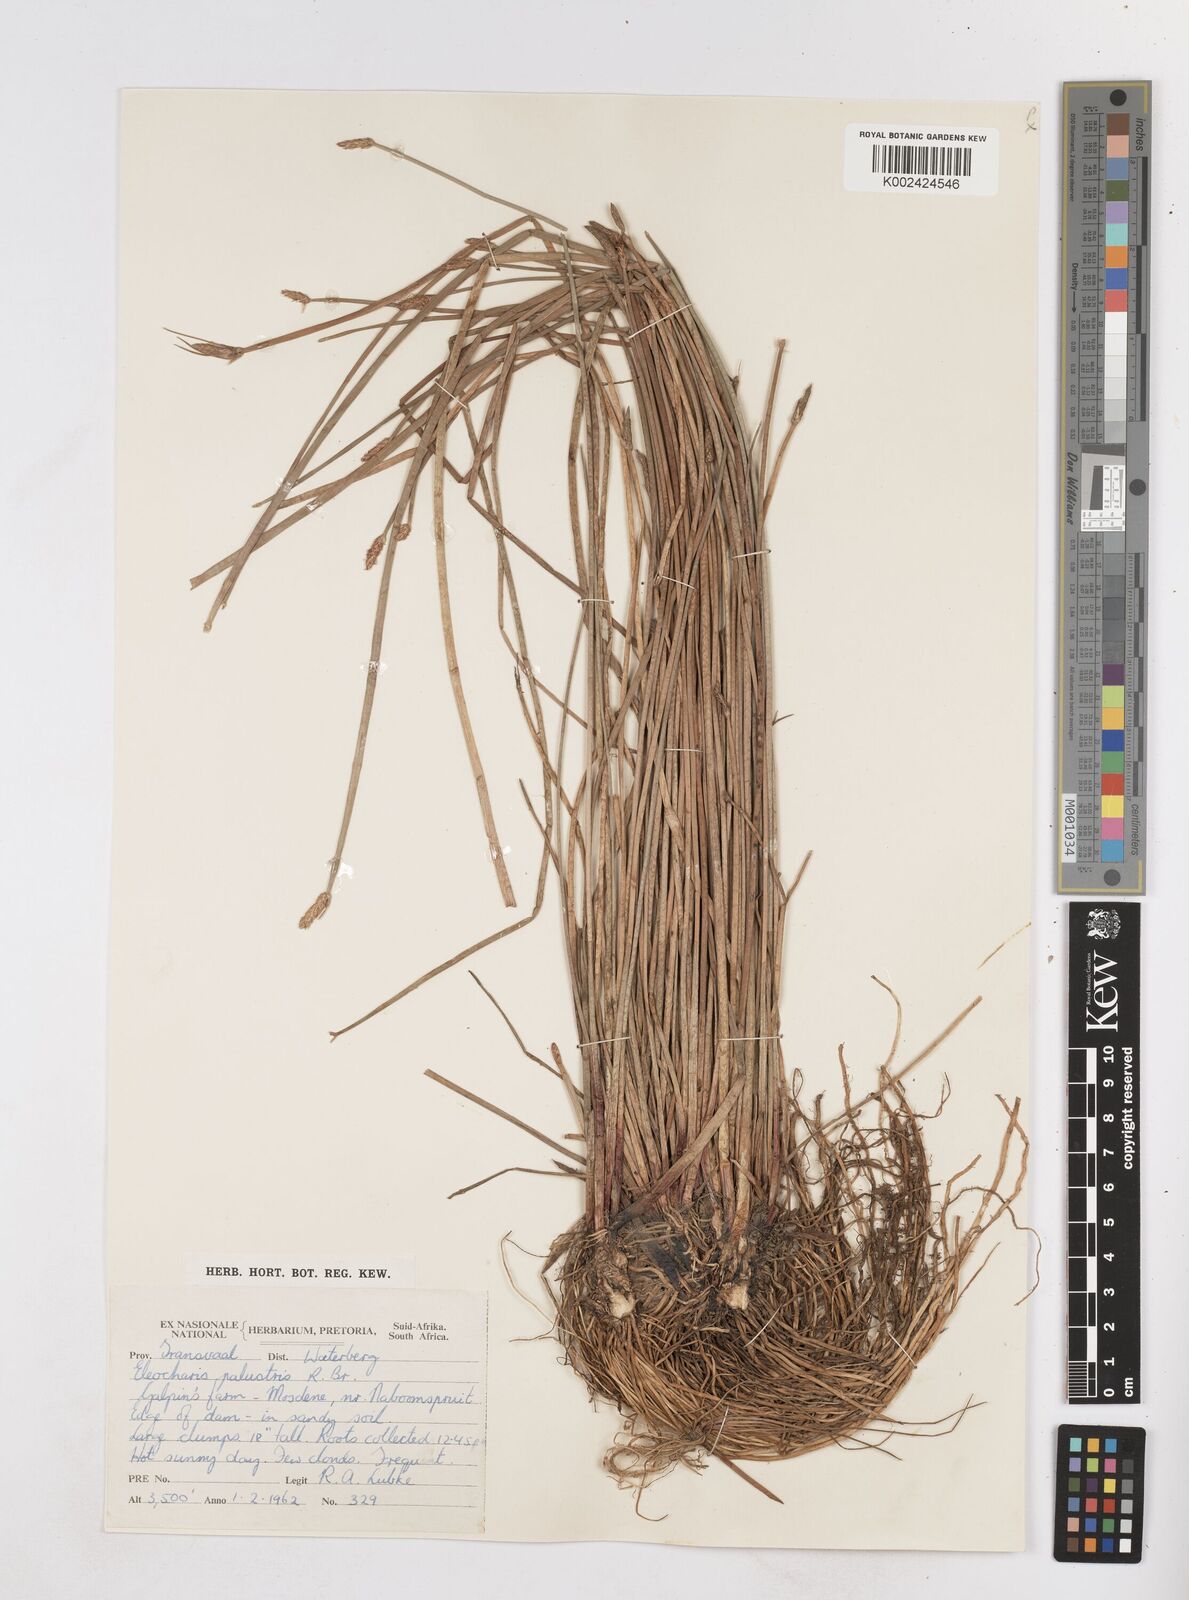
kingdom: Plantae
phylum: Tracheophyta
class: Liliopsida
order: Poales
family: Cyperaceae
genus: Eleocharis
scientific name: Eleocharis palustris
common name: Common spike-rush
